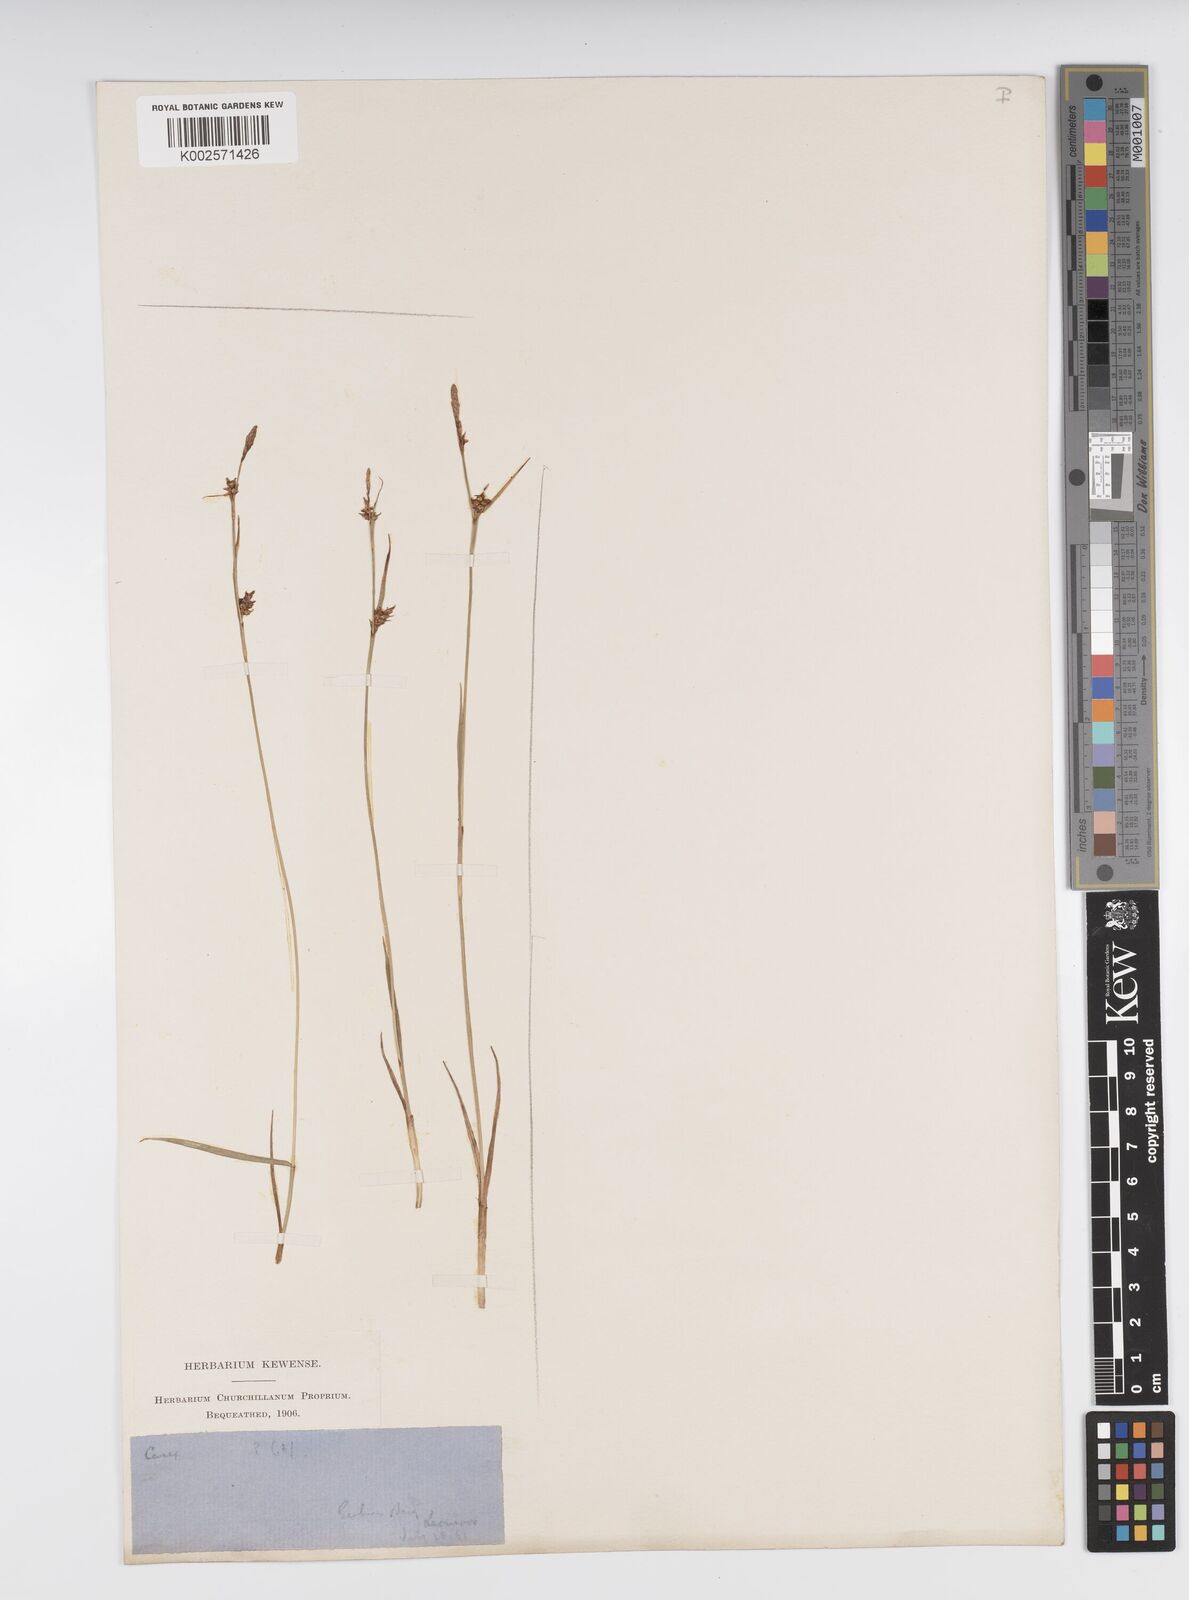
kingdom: Plantae
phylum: Tracheophyta
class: Liliopsida
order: Poales
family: Cyperaceae
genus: Carex
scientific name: Carex liparocarpos
